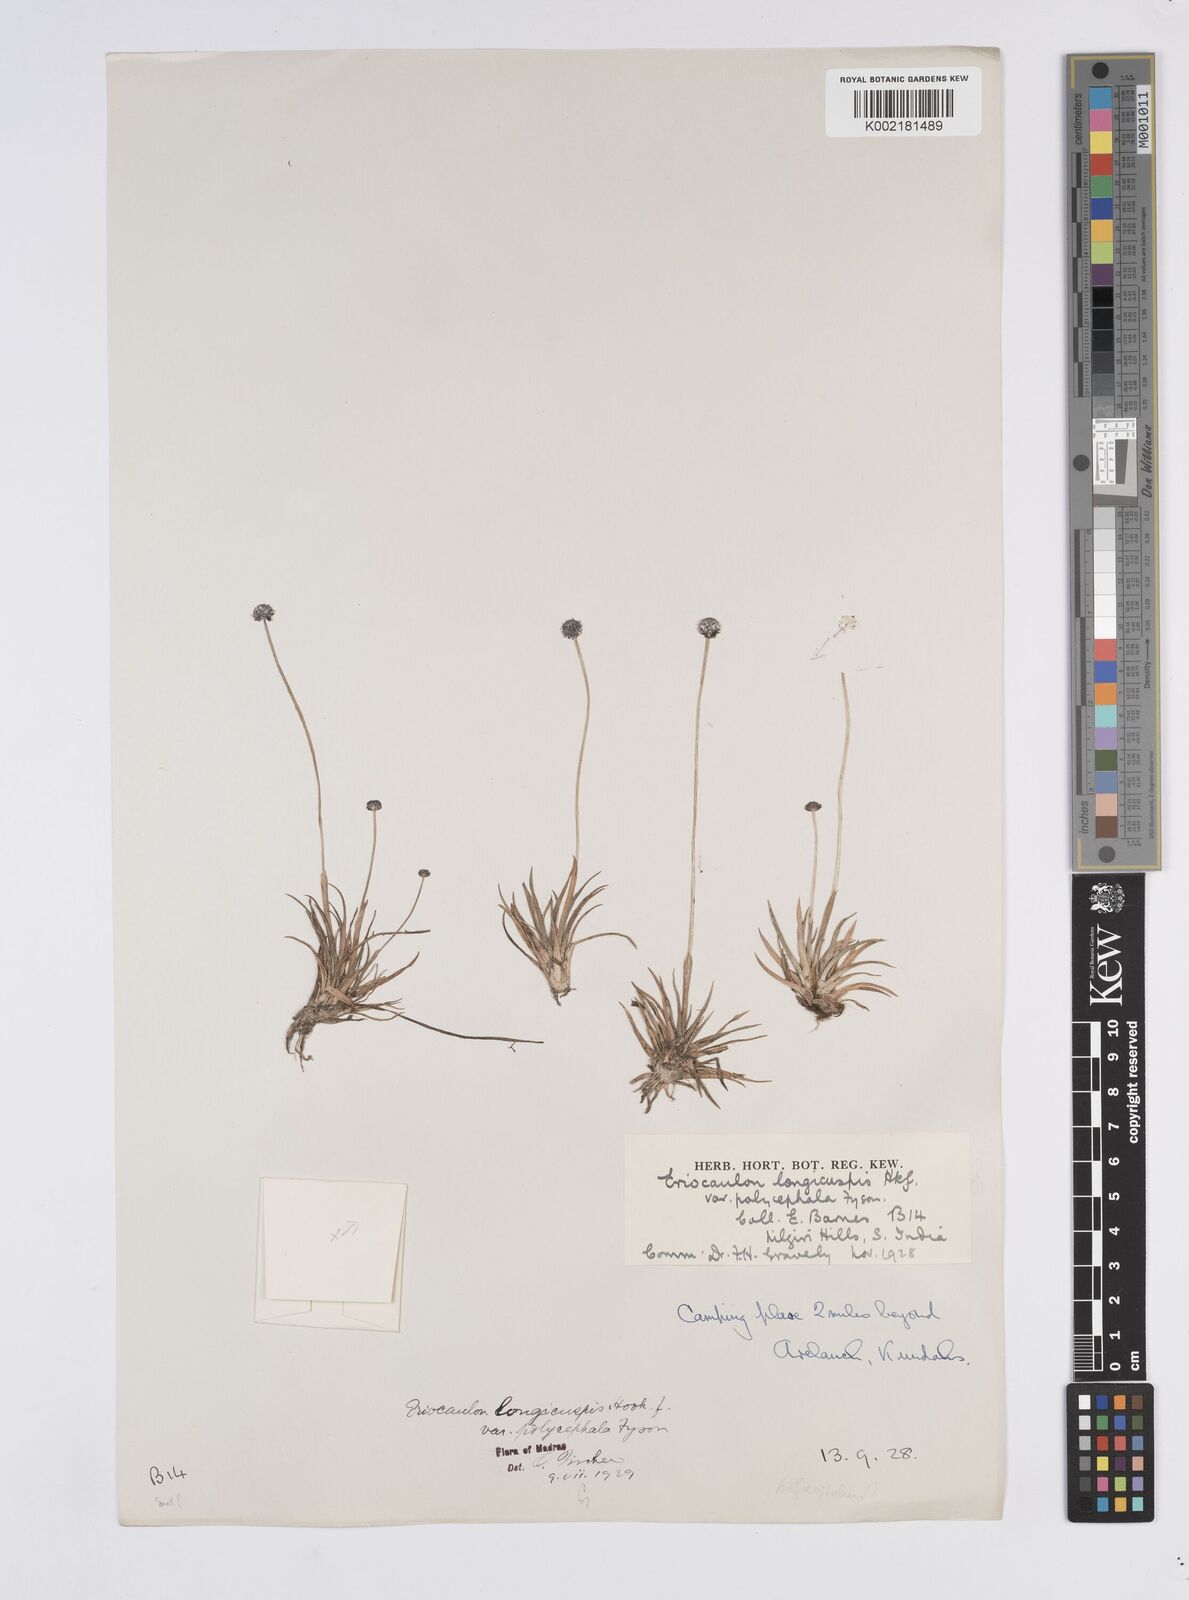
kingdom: Plantae
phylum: Tracheophyta
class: Liliopsida
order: Poales
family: Eriocaulaceae
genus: Eriocaulon
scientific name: Eriocaulon longicuspe
